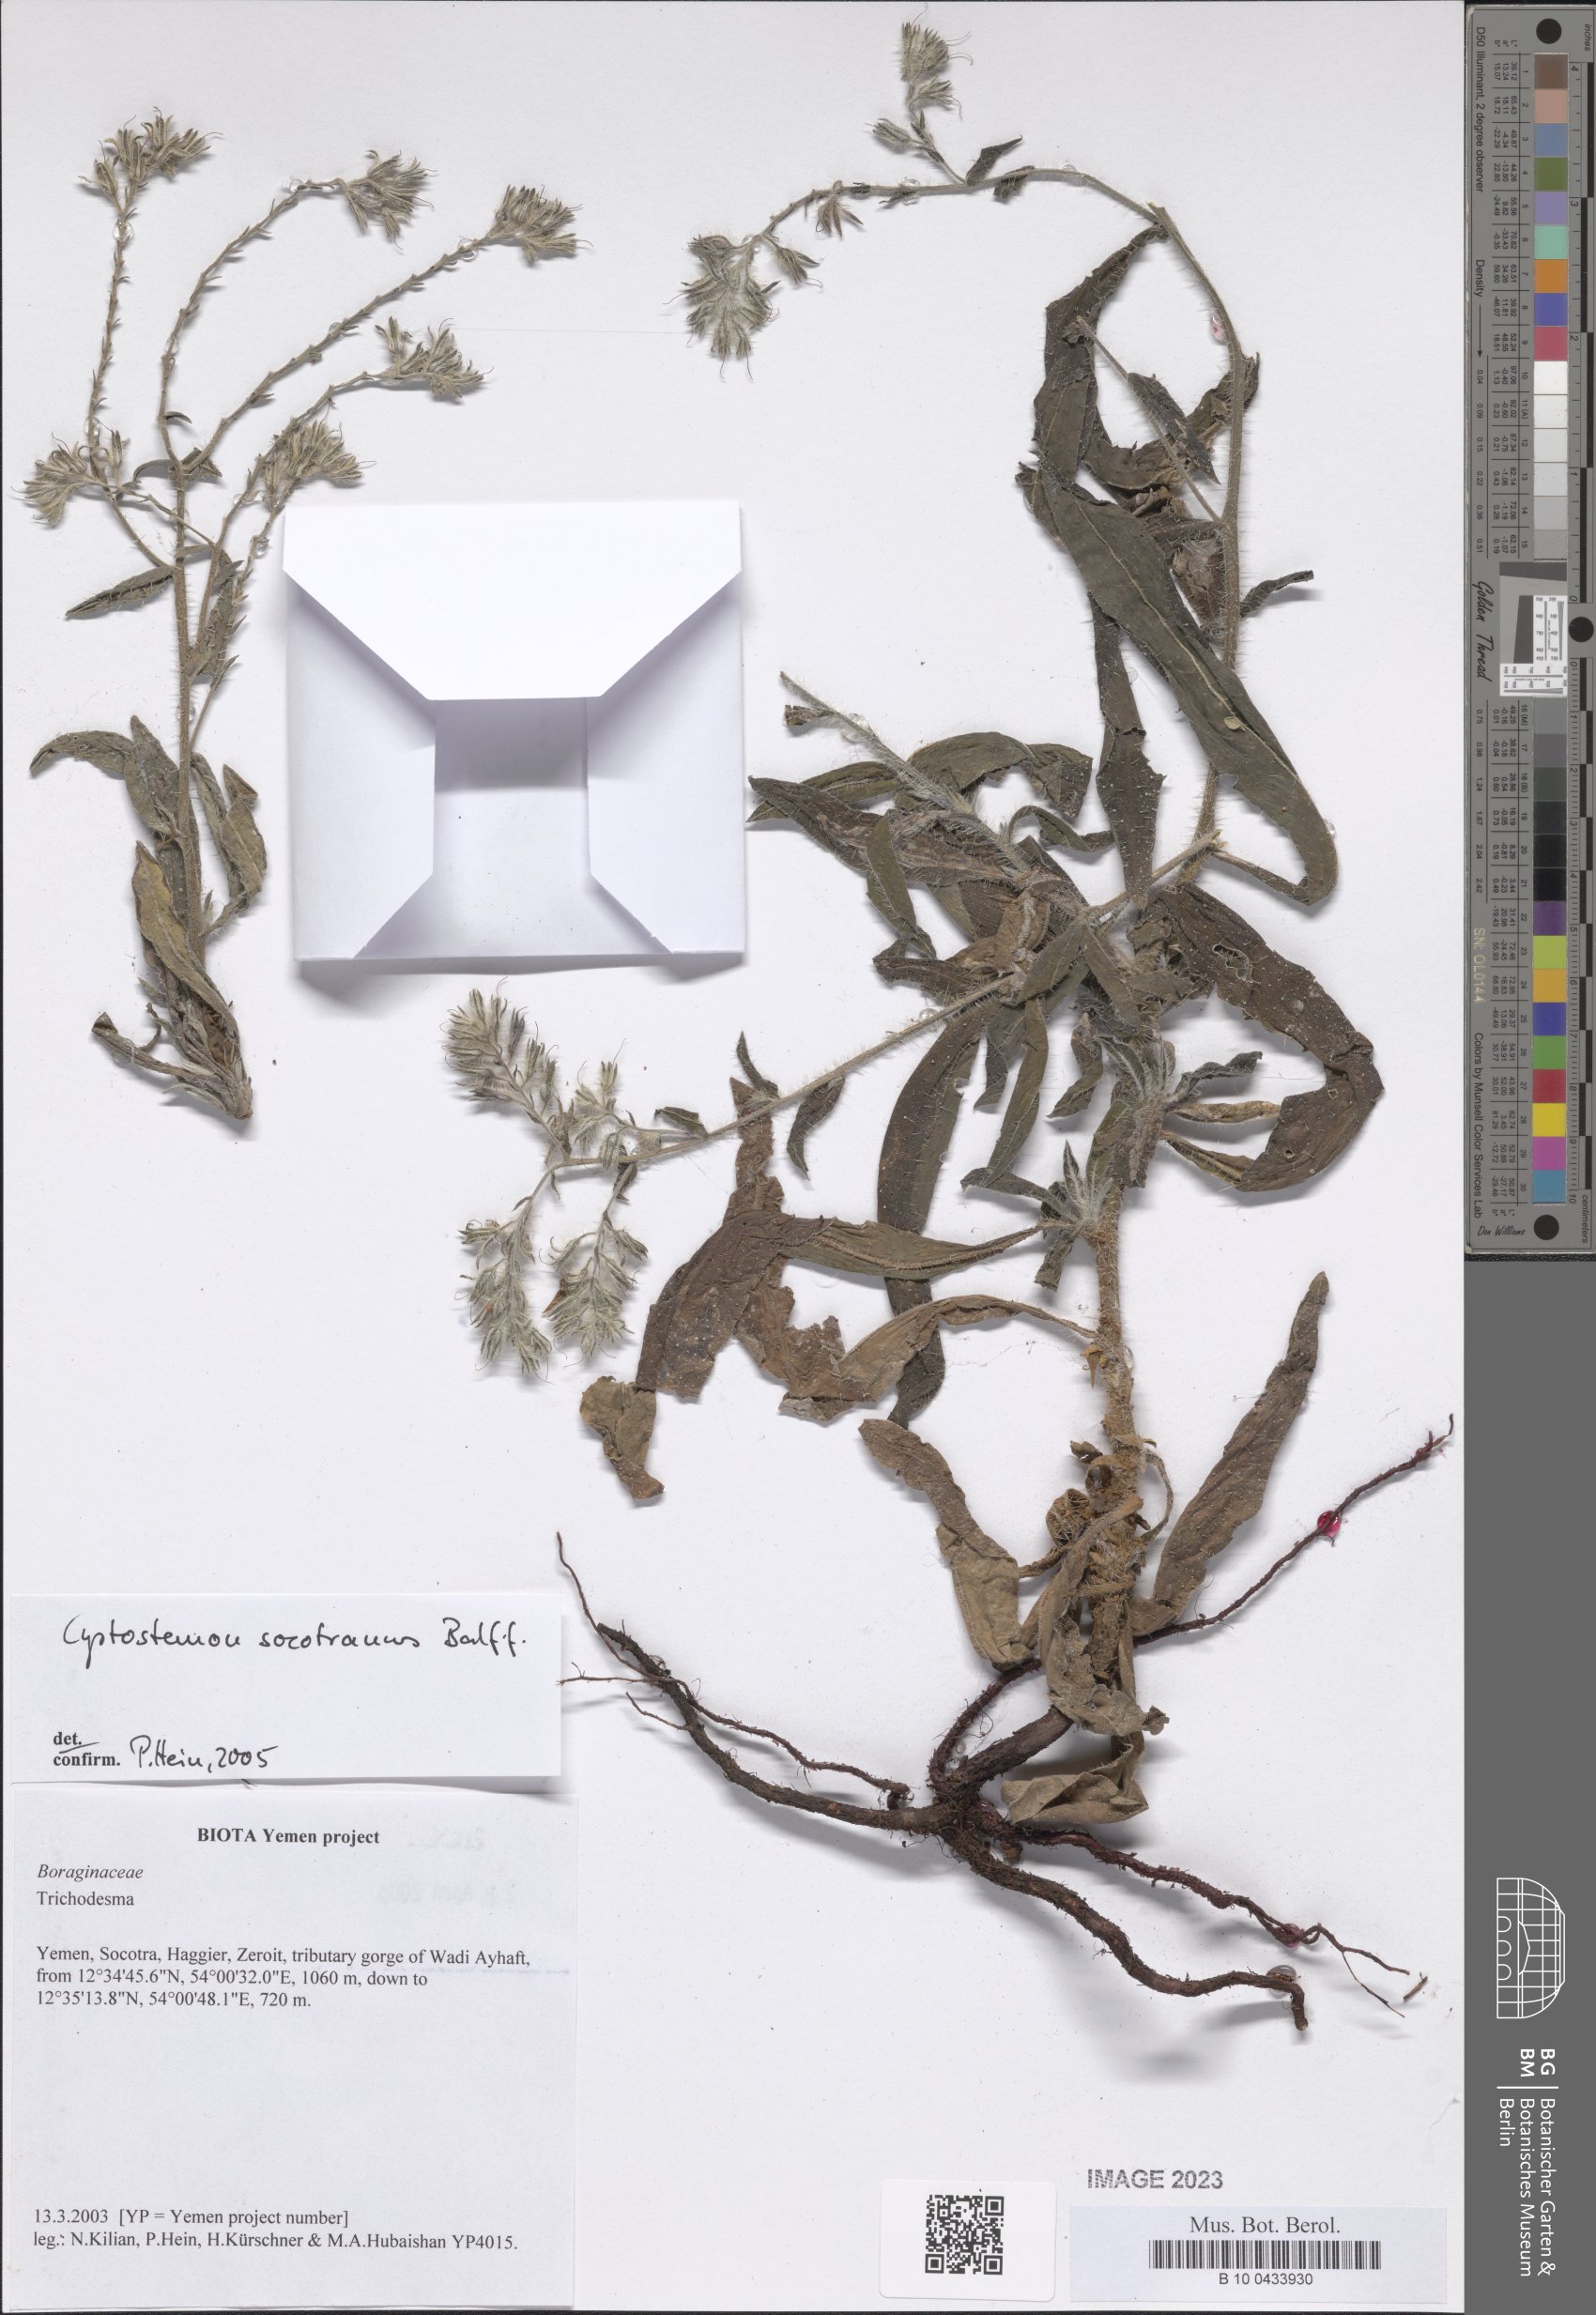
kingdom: Plantae
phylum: Tracheophyta
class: Magnoliopsida
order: Boraginales
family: Boraginaceae
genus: Cystostemon
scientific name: Cystostemon socotranus
